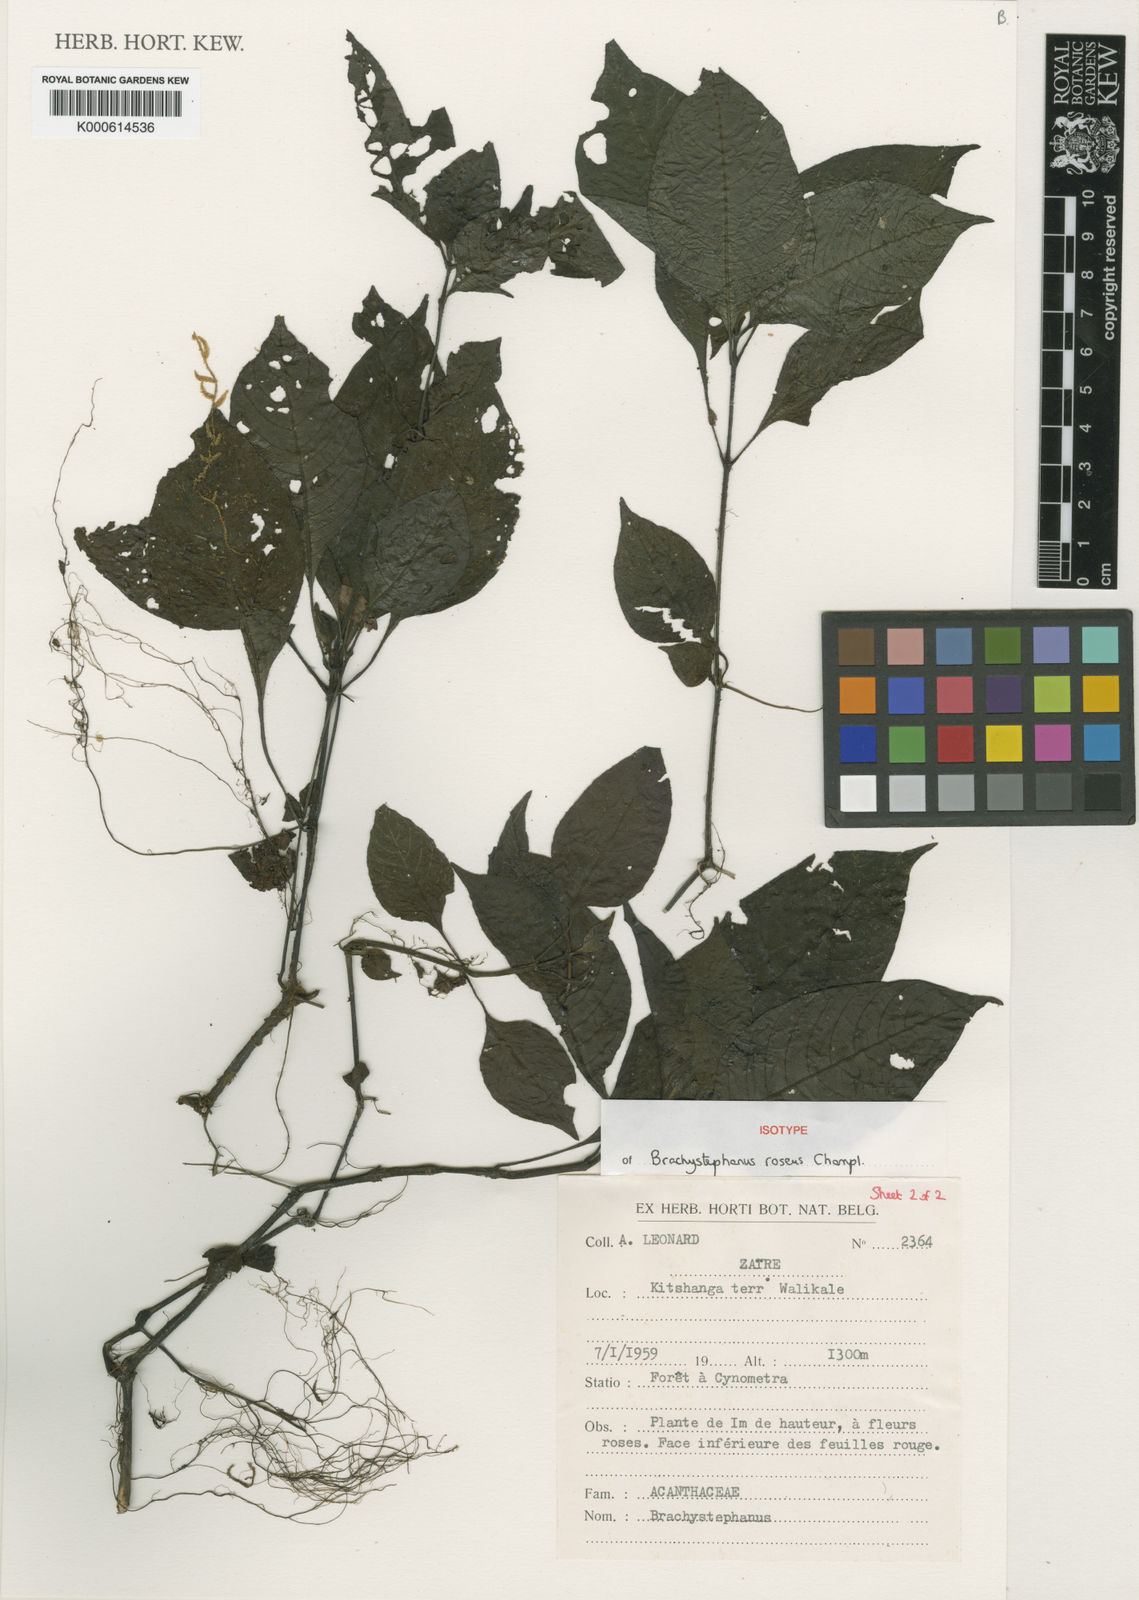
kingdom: Plantae
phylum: Tracheophyta
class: Magnoliopsida
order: Lamiales
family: Acanthaceae
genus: Brachystephanus
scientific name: Brachystephanus roseus
